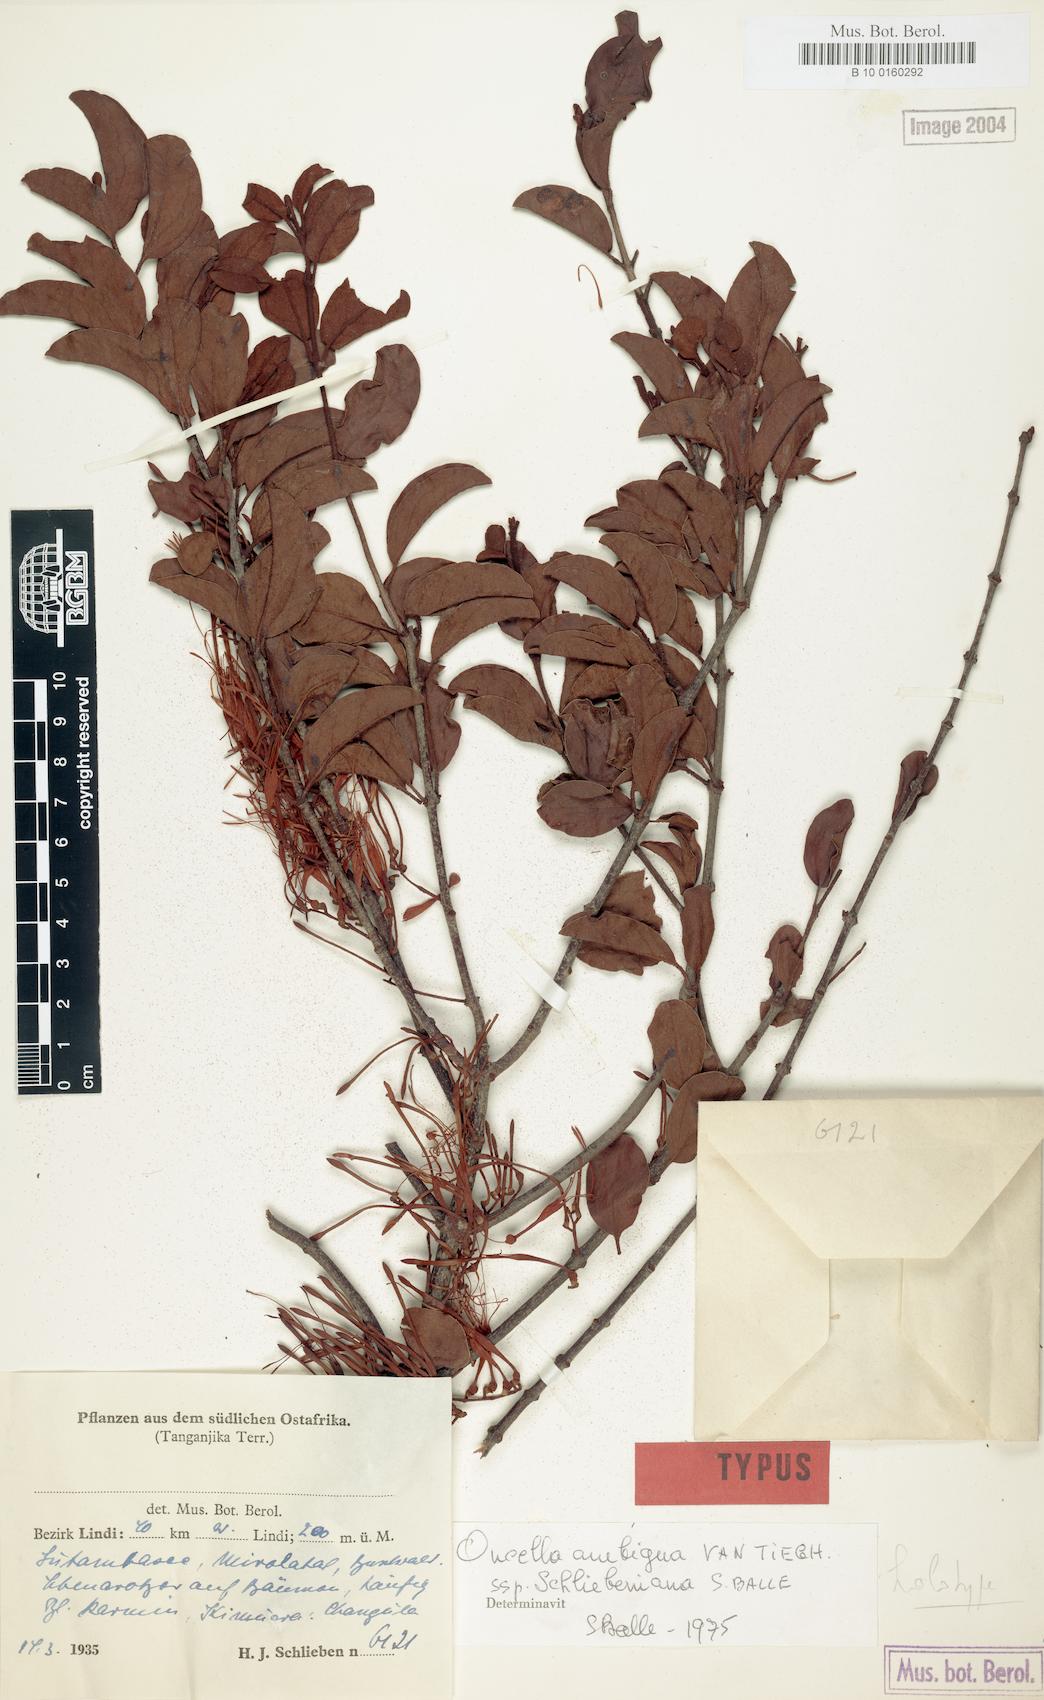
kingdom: Plantae
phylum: Tracheophyta
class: Magnoliopsida
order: Santalales
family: Loranthaceae
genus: Oncella
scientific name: Oncella schliebeniana
